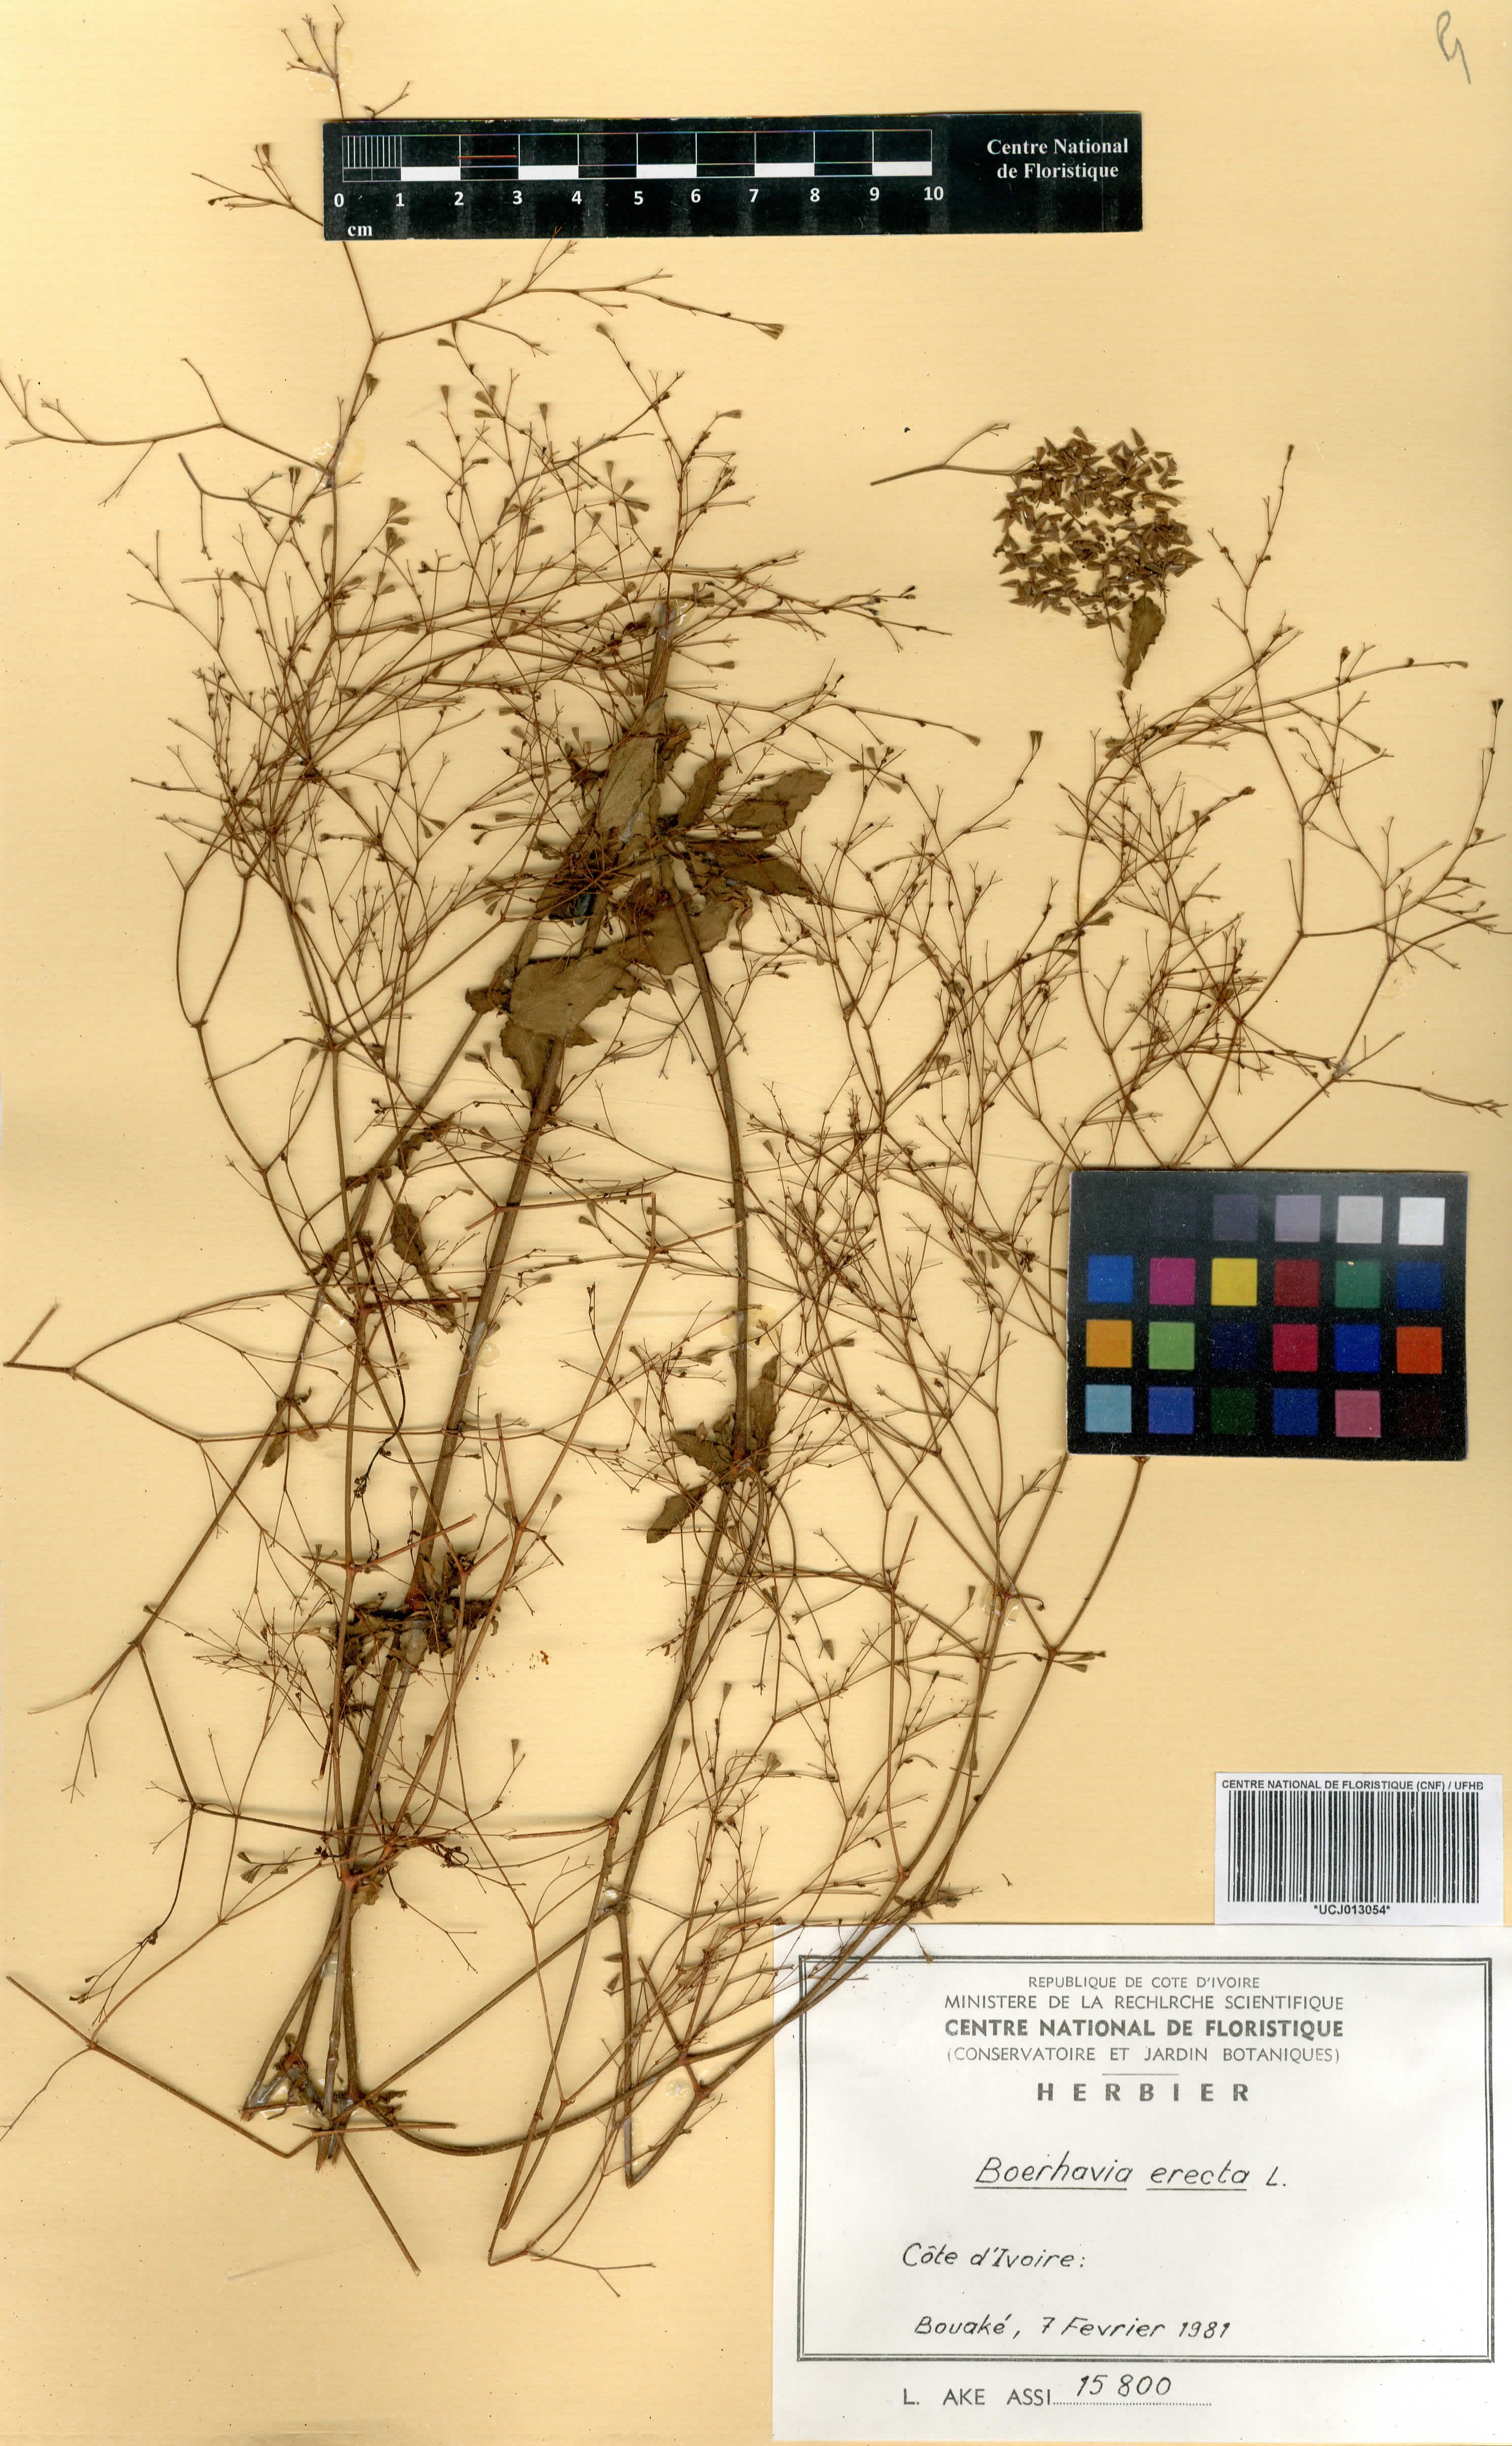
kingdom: Plantae
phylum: Tracheophyta
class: Magnoliopsida
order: Caryophyllales
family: Nyctaginaceae
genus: Boerhavia
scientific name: Boerhavia erecta
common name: Erect spiderling
